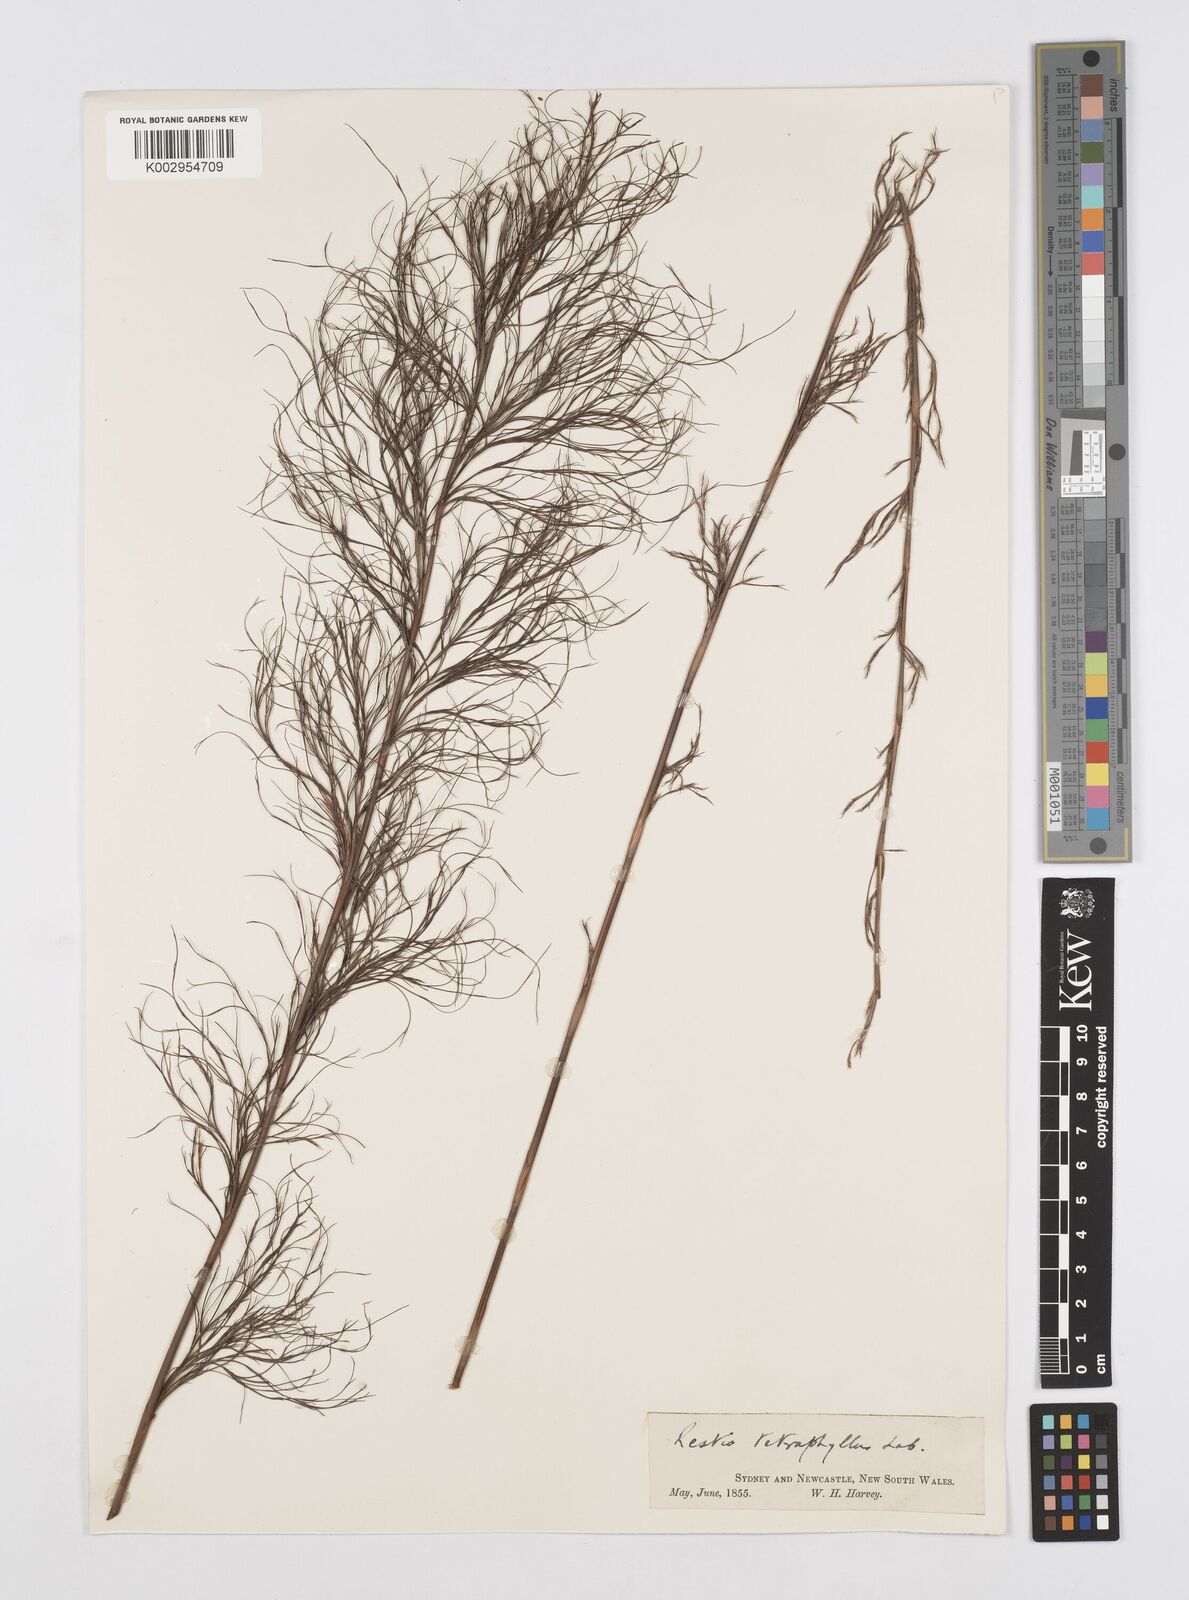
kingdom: Plantae
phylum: Tracheophyta
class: Liliopsida
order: Poales
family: Restionaceae
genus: Baloskion
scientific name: Baloskion tetraphyllum
